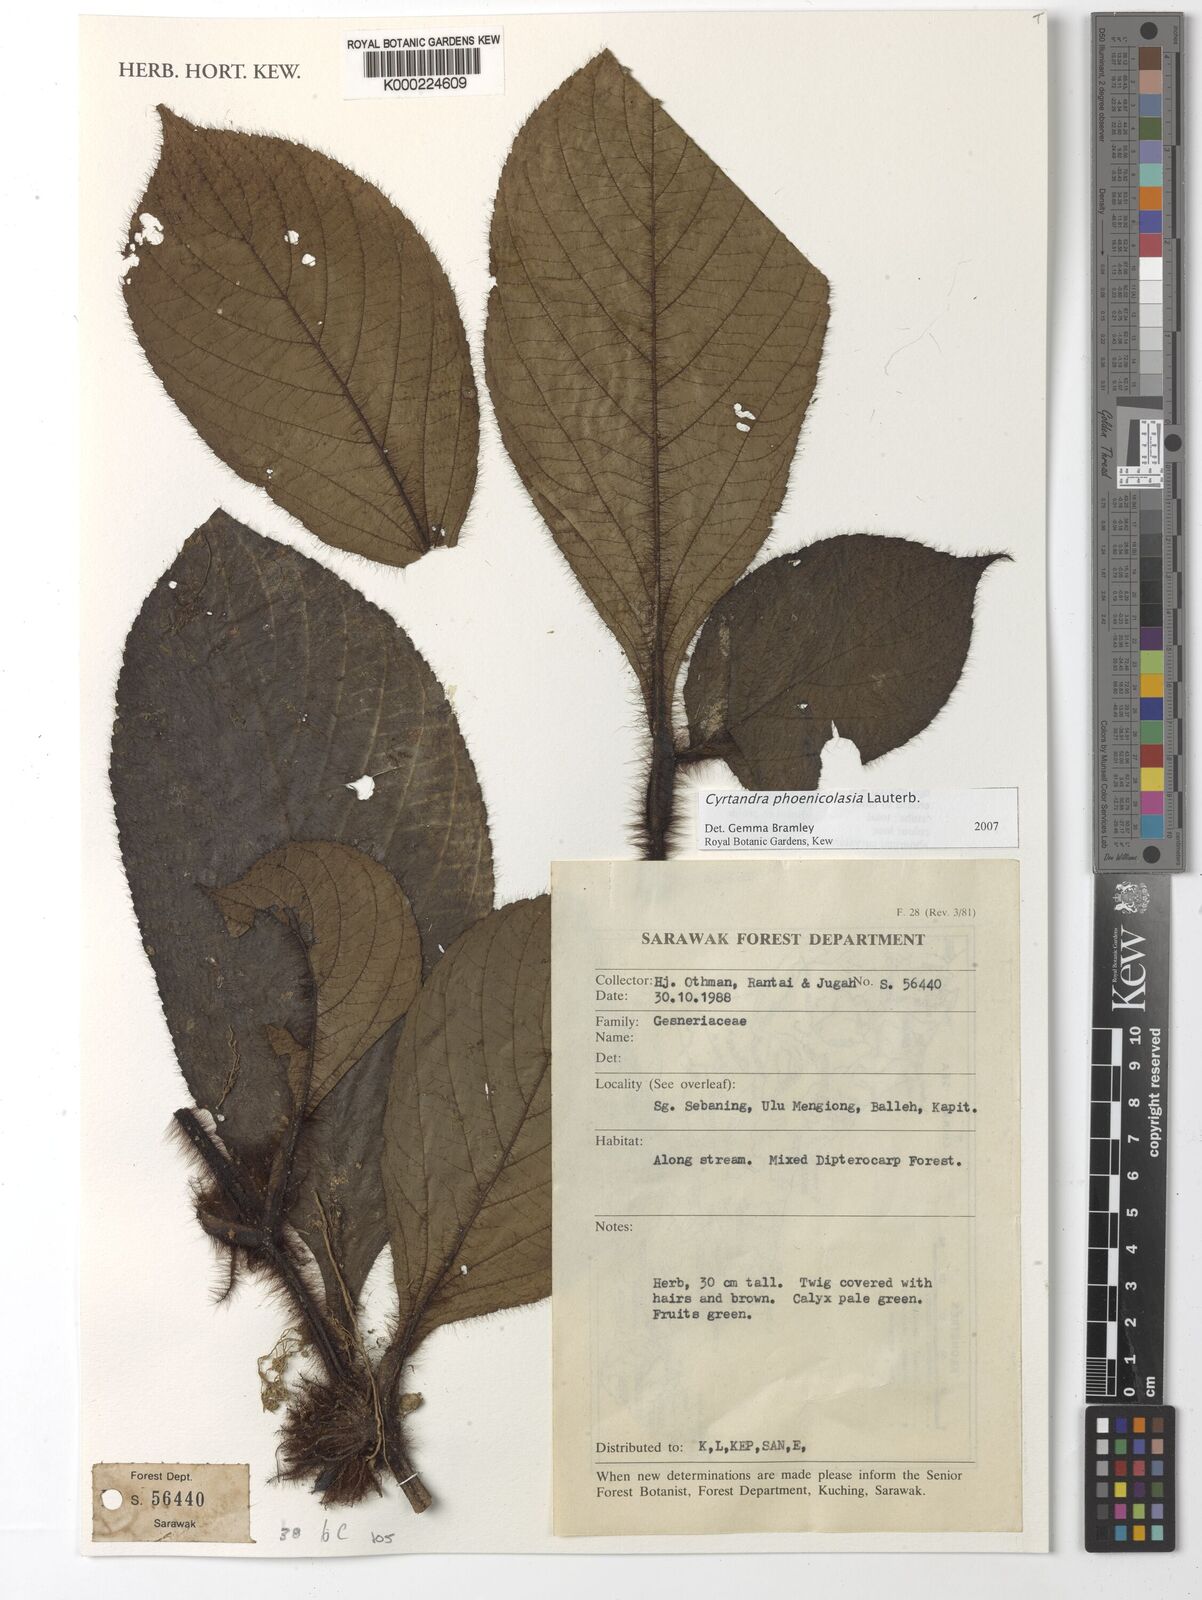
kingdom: Plantae
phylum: Tracheophyta
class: Magnoliopsida
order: Lamiales
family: Gesneriaceae
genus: Cyrtandra
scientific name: Cyrtandra phoenicolasia
